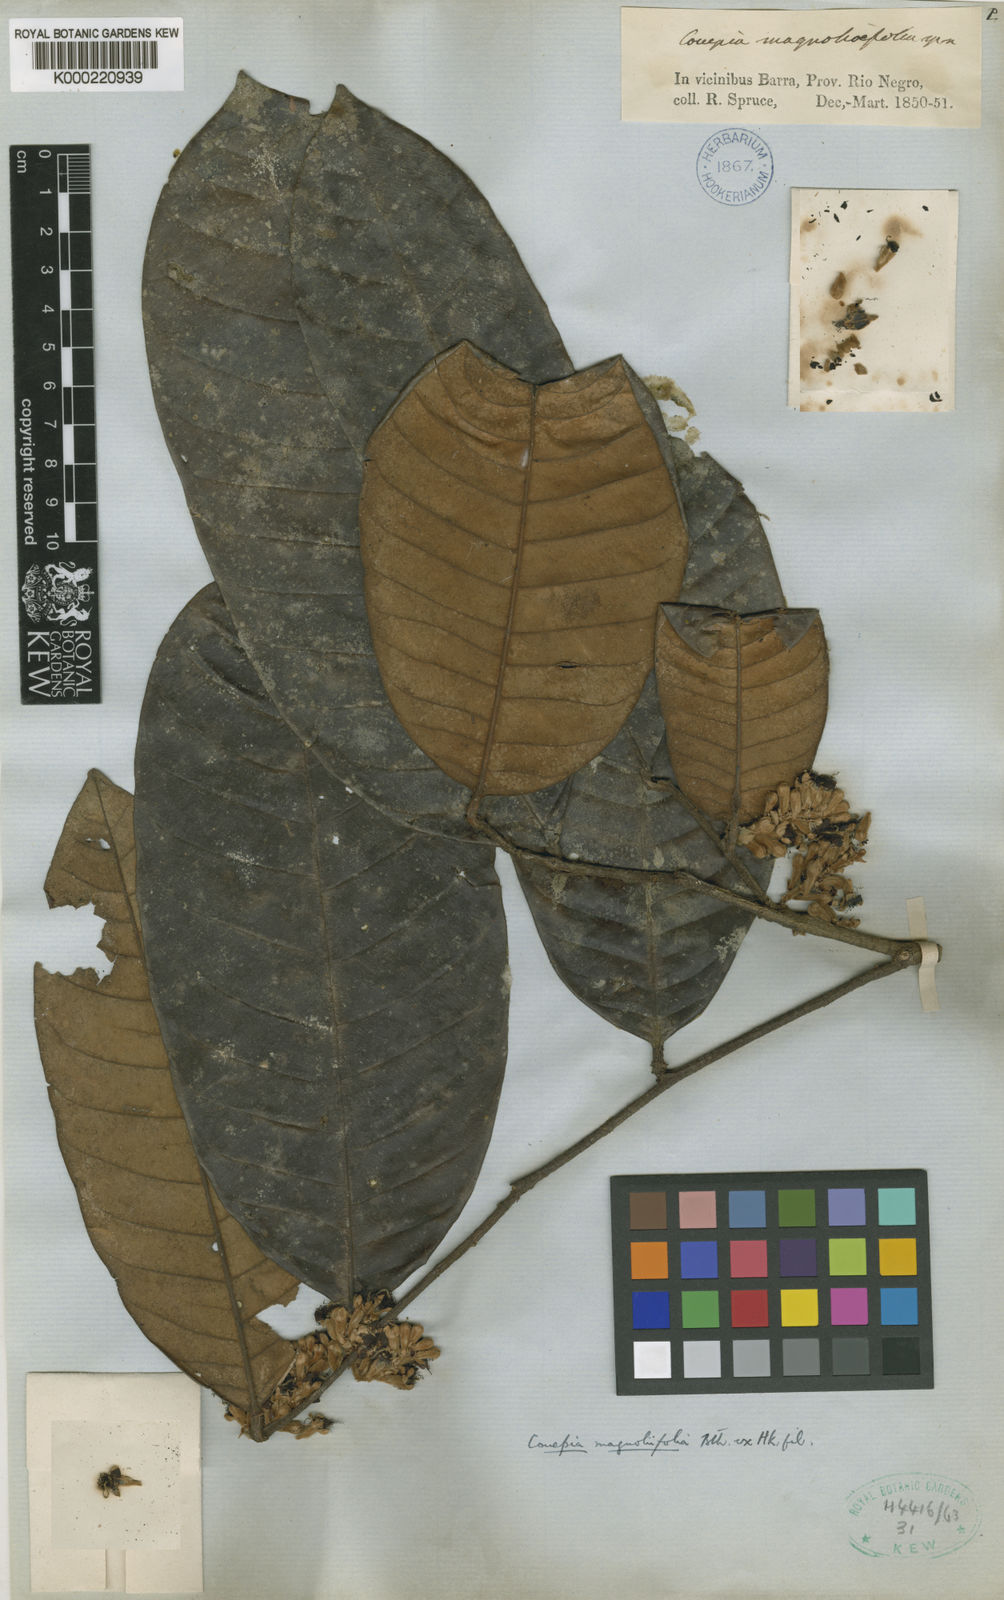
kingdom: Plantae
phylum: Tracheophyta
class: Magnoliopsida
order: Malpighiales
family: Chrysobalanaceae
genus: Couepia
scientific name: Couepia magnoliifolia
